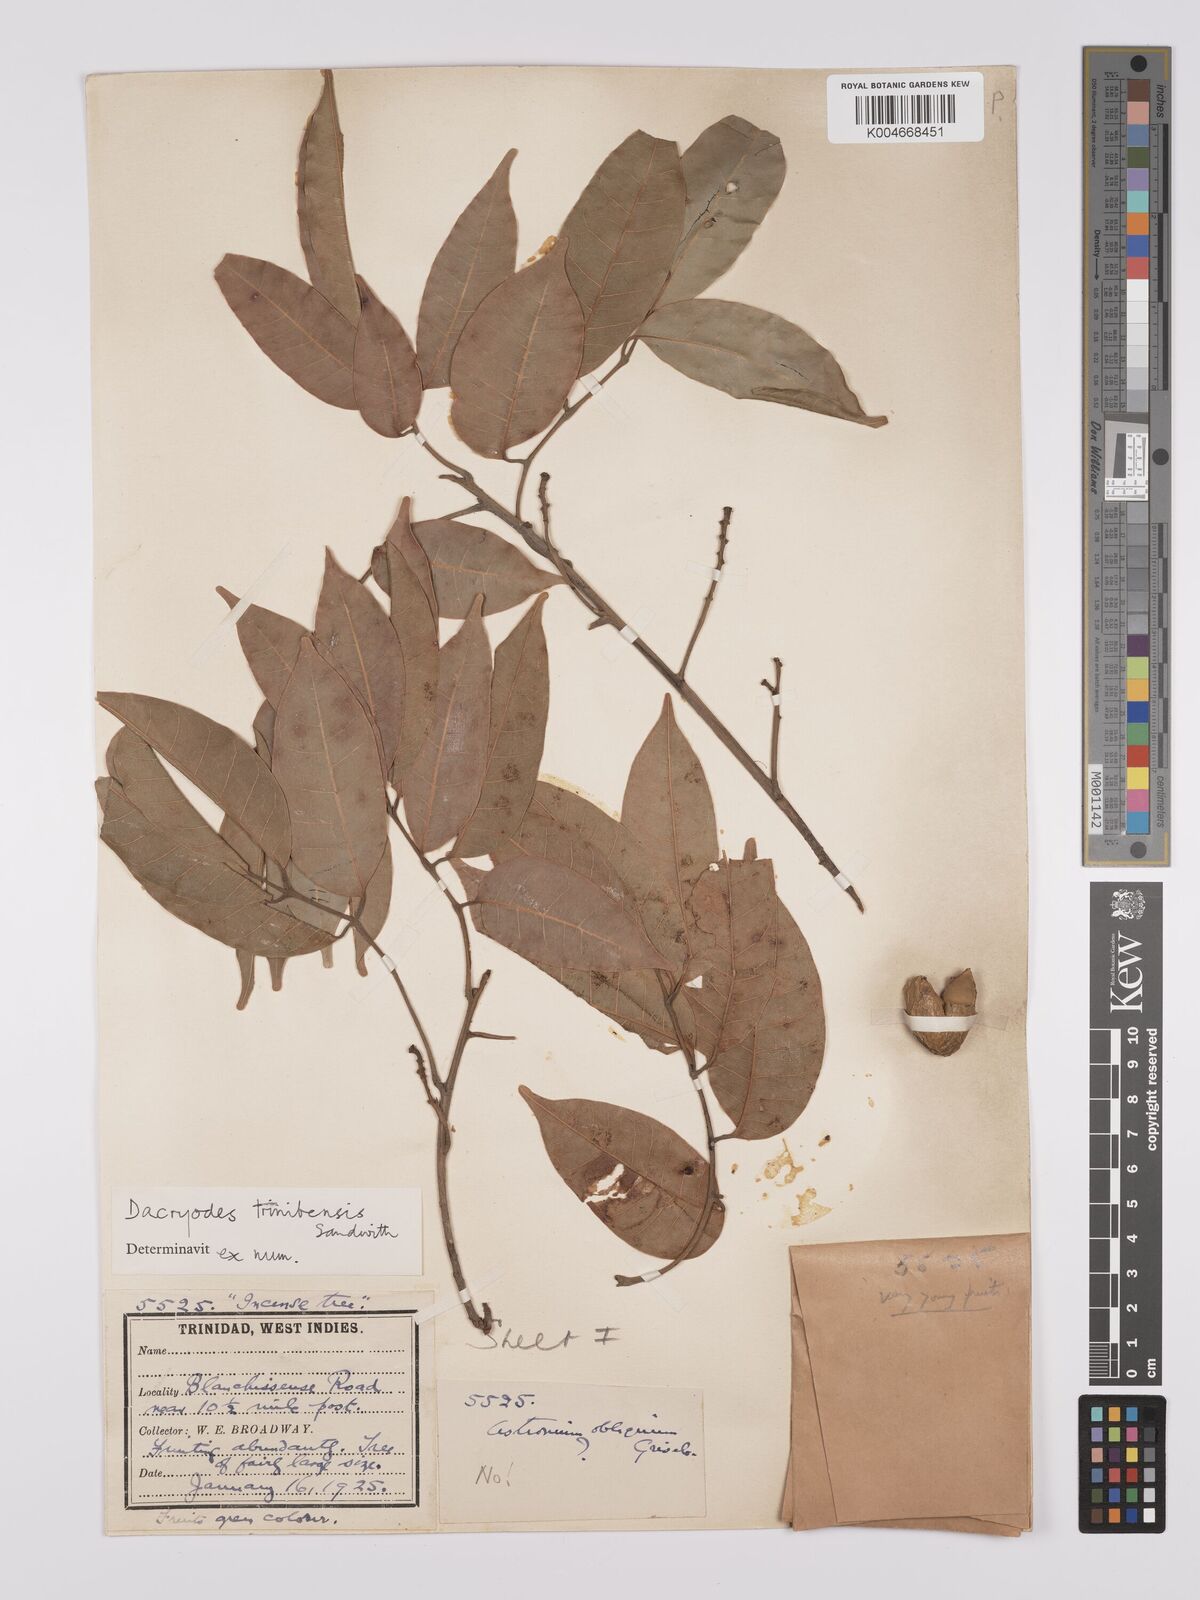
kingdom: Plantae
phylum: Tracheophyta
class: Magnoliopsida
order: Sapindales
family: Burseraceae
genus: Dacryodes
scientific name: Dacryodes belemensis
